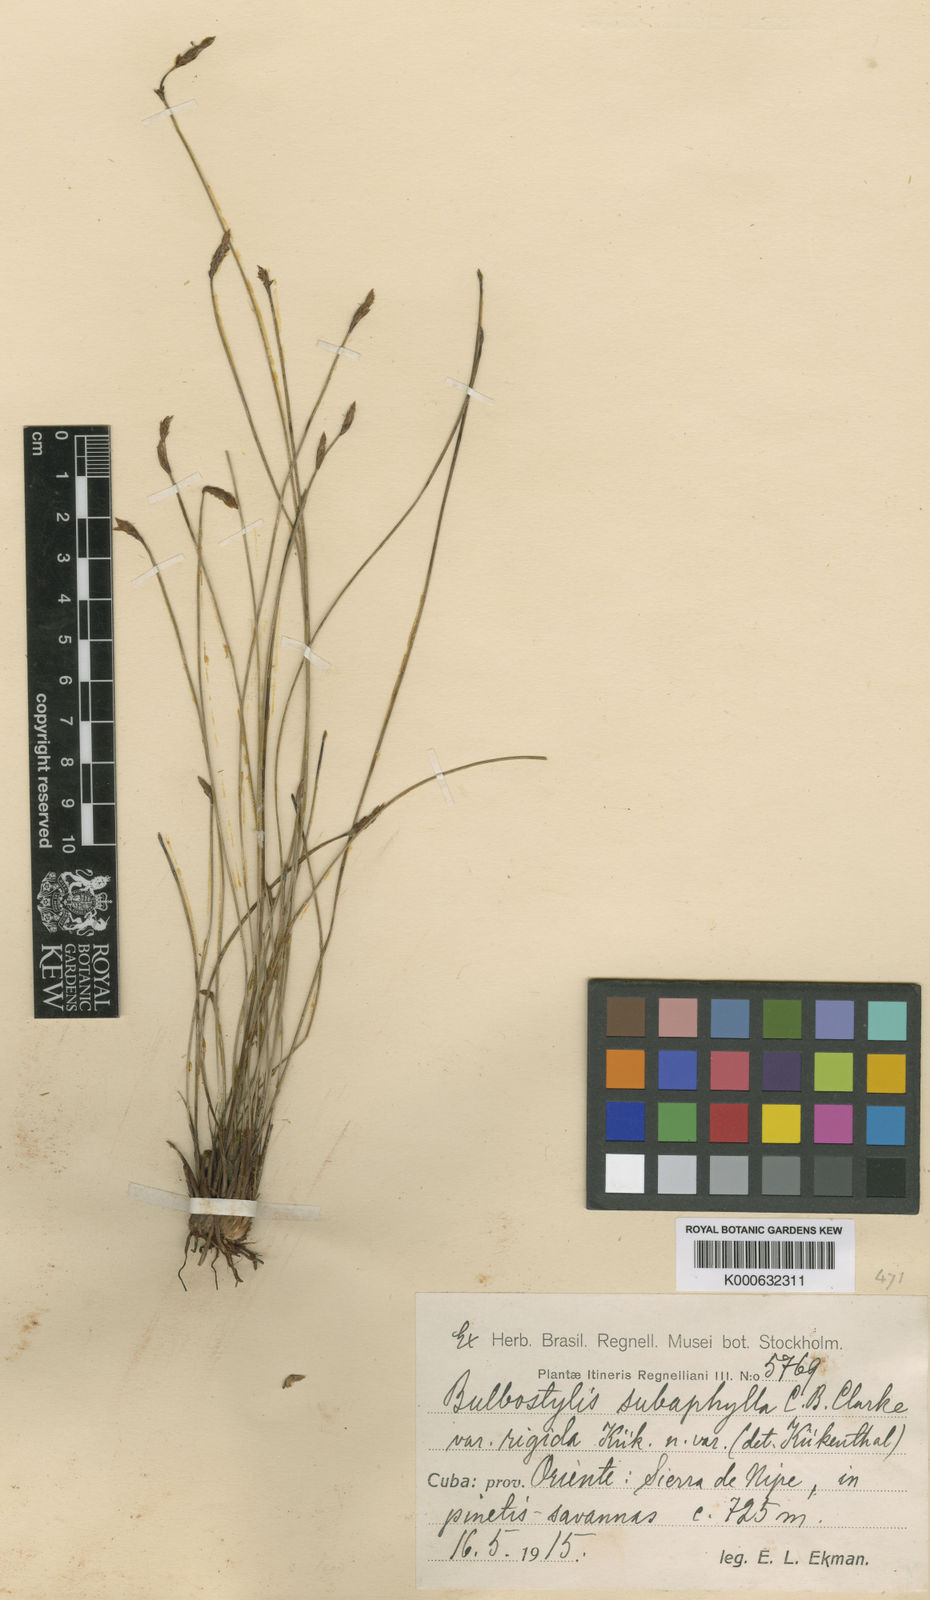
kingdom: Plantae
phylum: Tracheophyta
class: Liliopsida
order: Poales
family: Cyperaceae
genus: Bulbostylis
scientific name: Bulbostylis subaphylla
